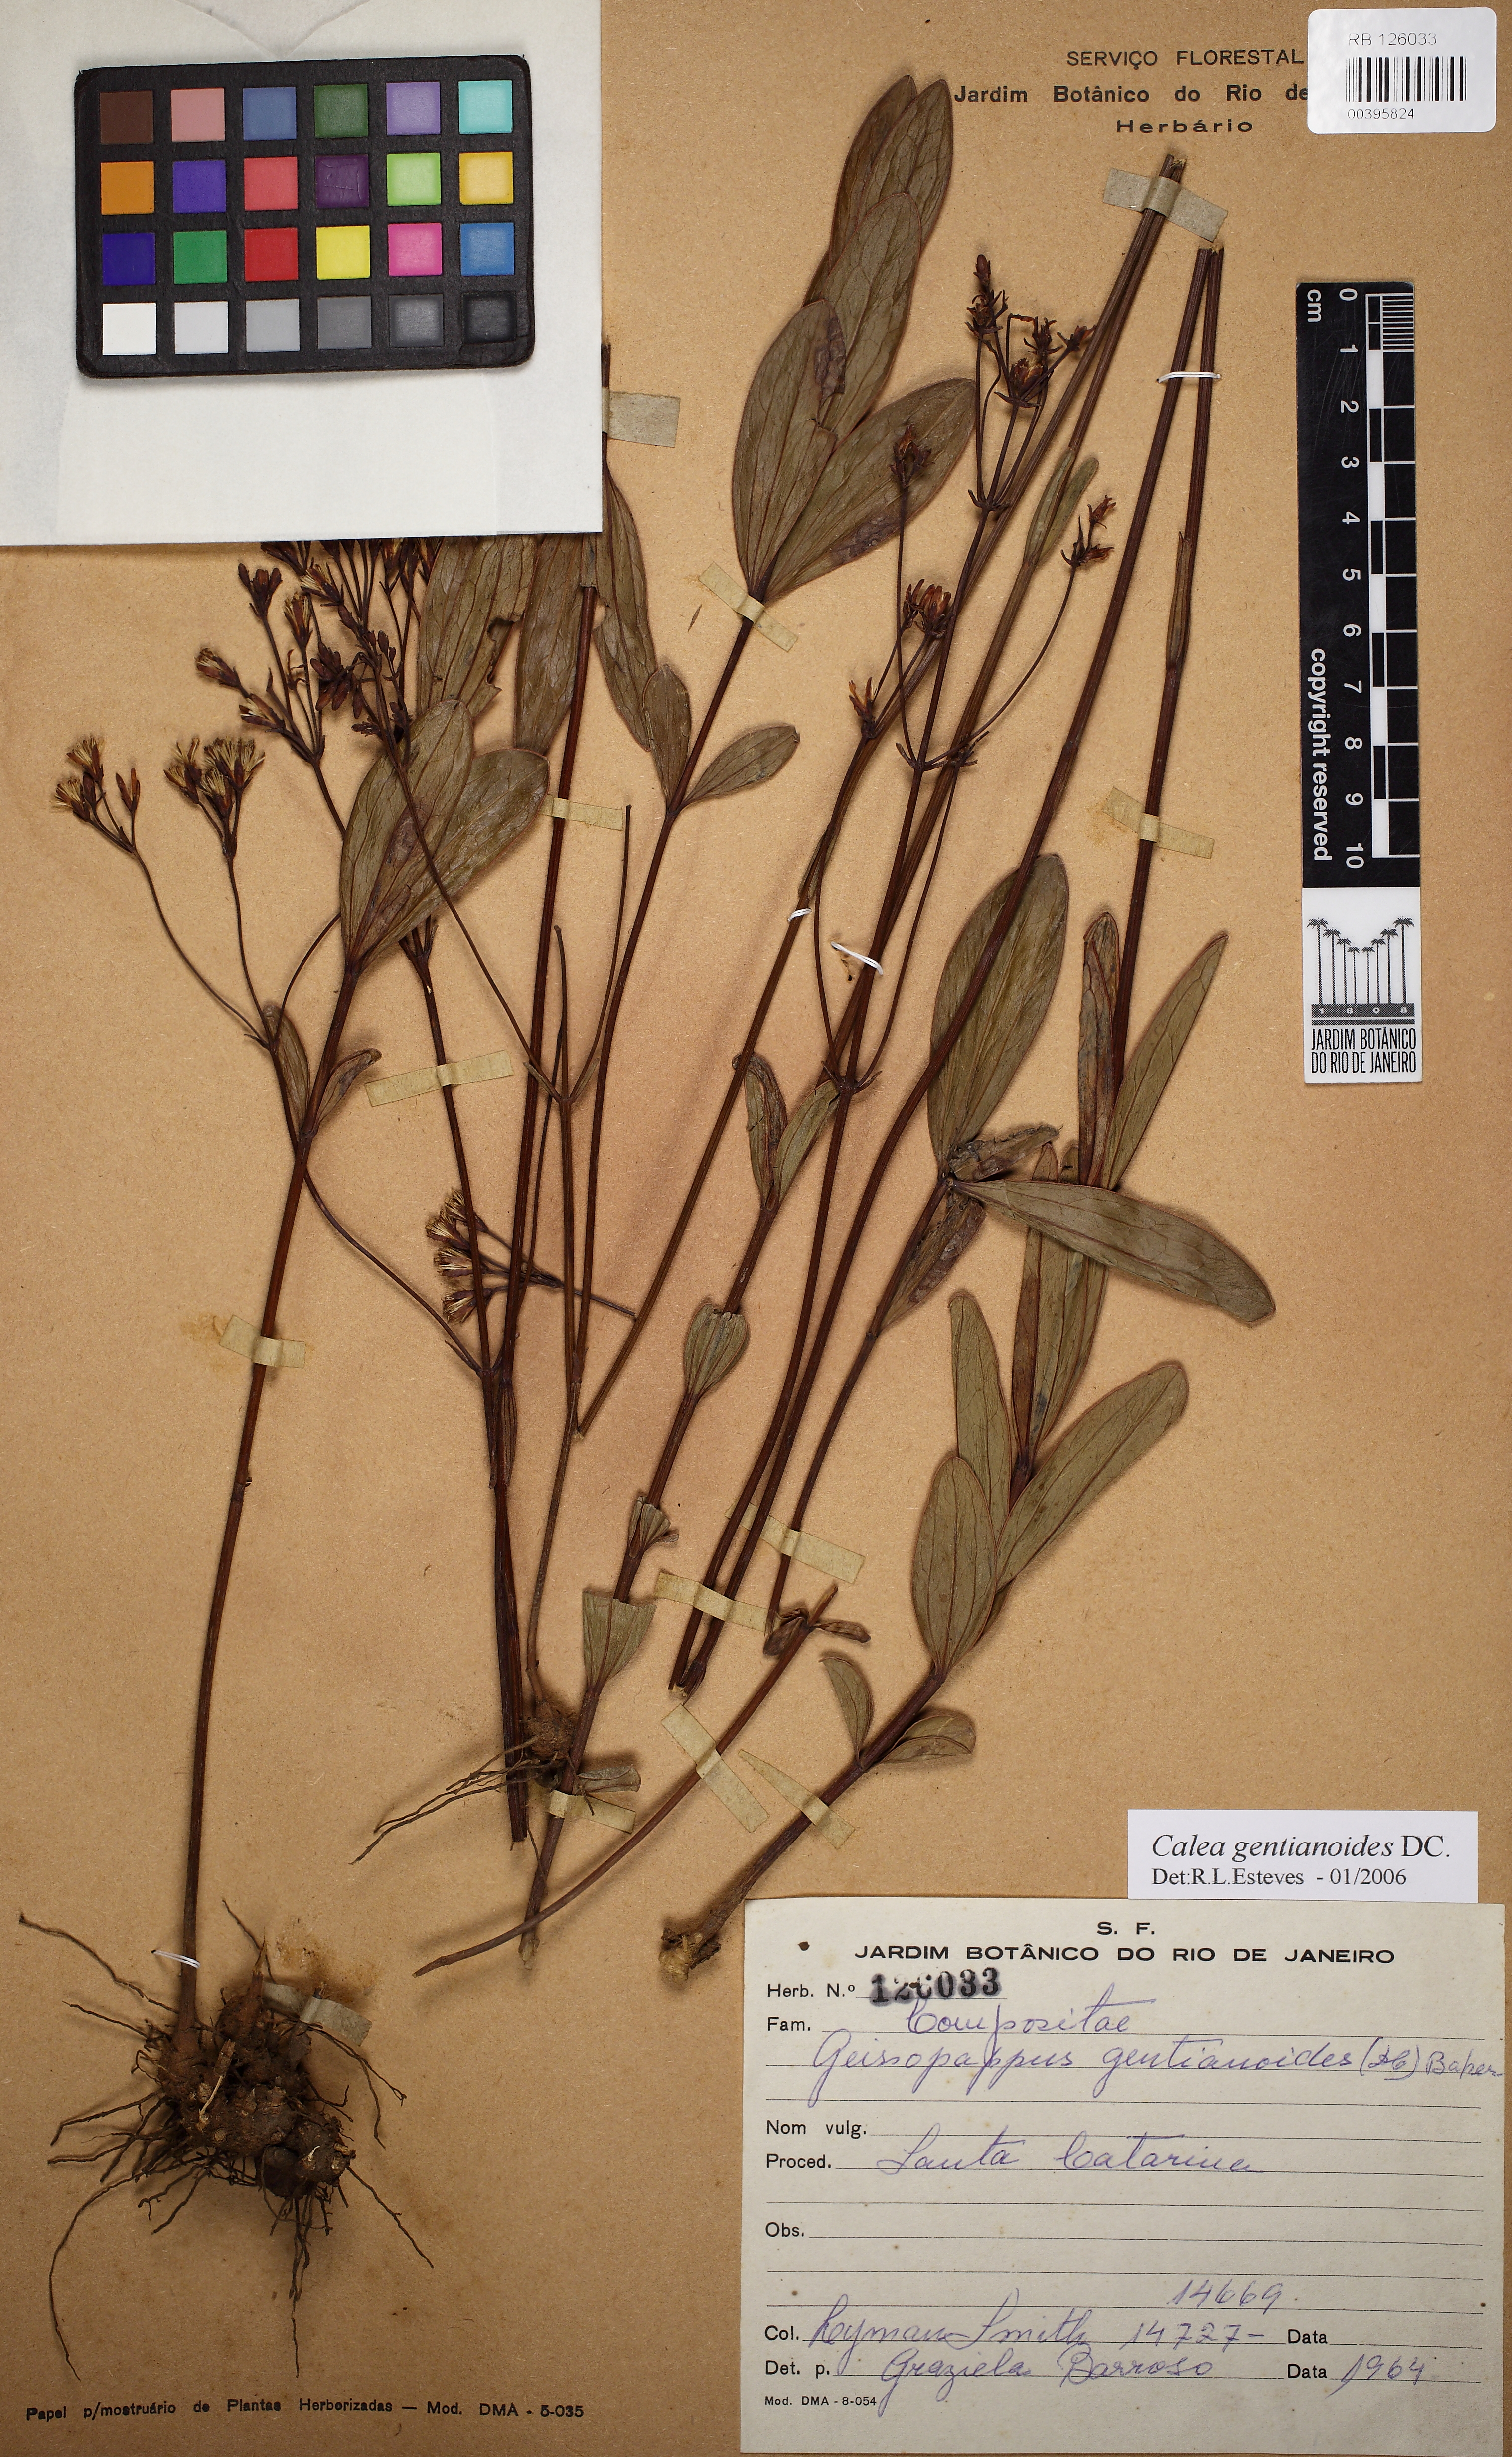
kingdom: Plantae
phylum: Tracheophyta
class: Magnoliopsida
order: Asterales
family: Asteraceae
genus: Calea
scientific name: Calea gentianoides
